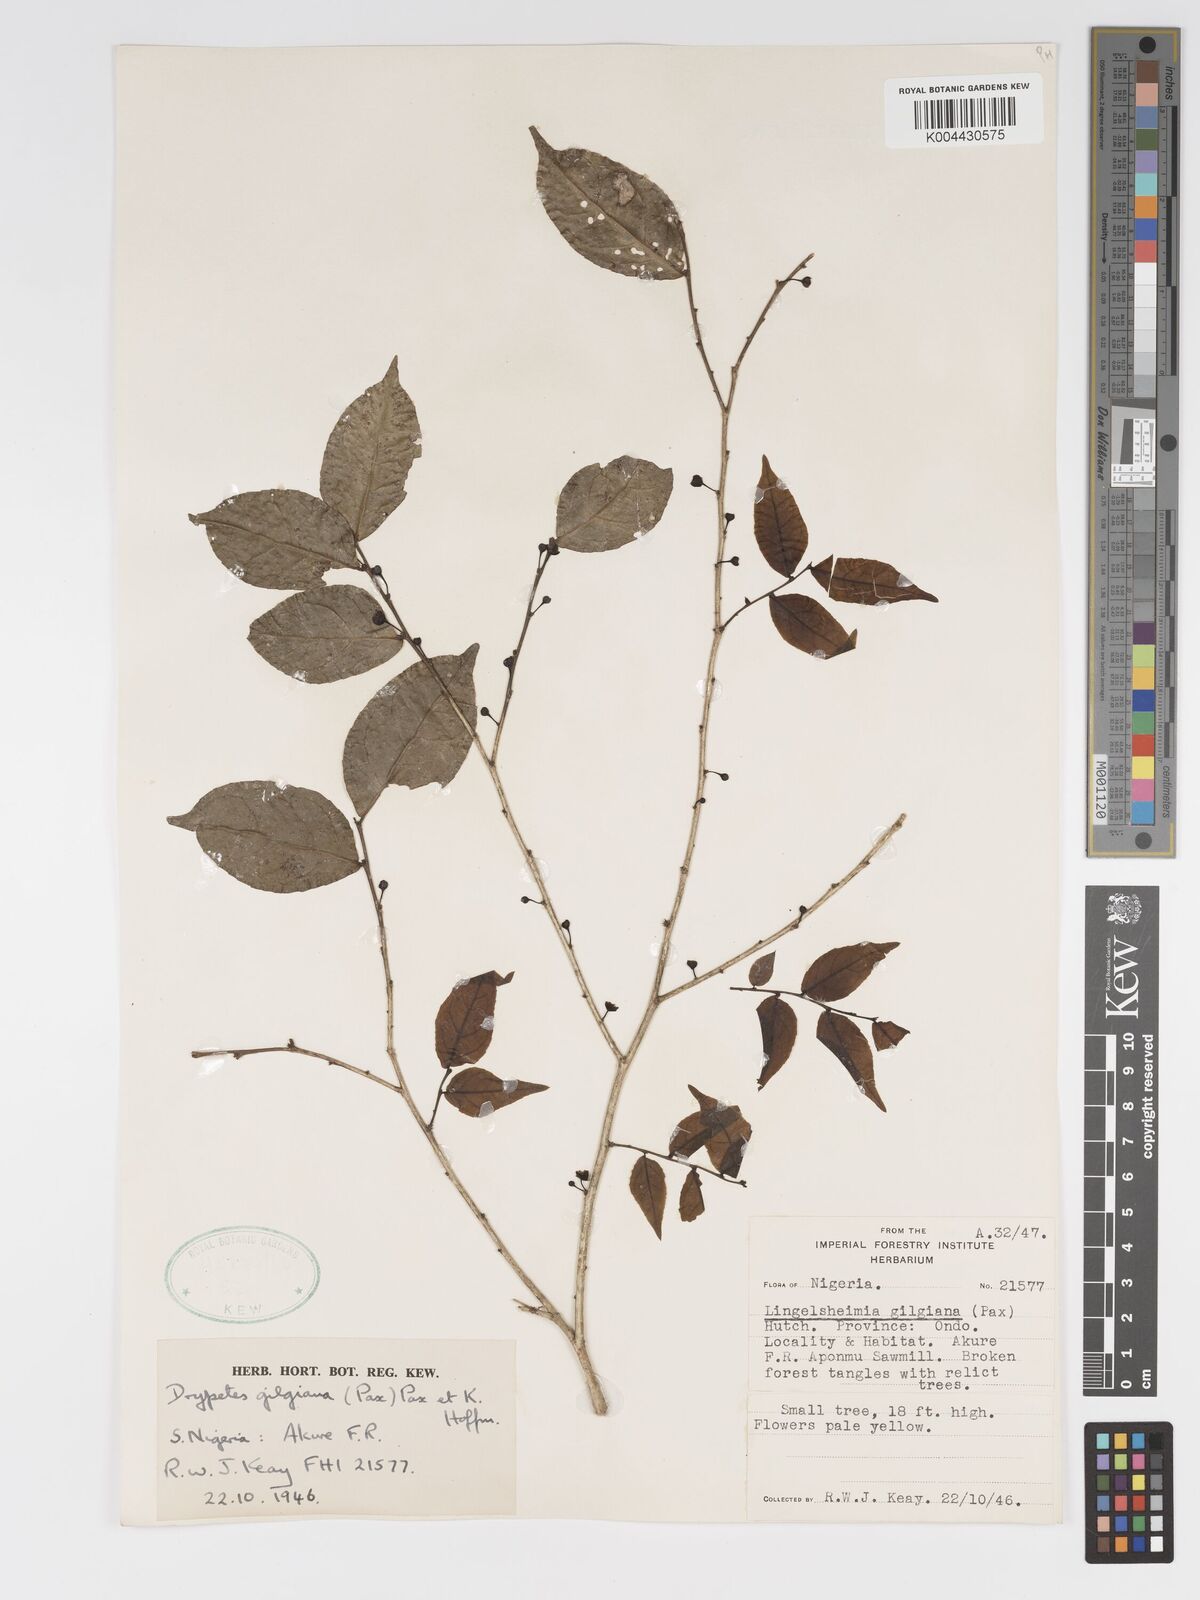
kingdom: Plantae
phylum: Tracheophyta
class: Magnoliopsida
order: Malpighiales
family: Putranjivaceae
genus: Drypetes
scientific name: Drypetes gilgiana
